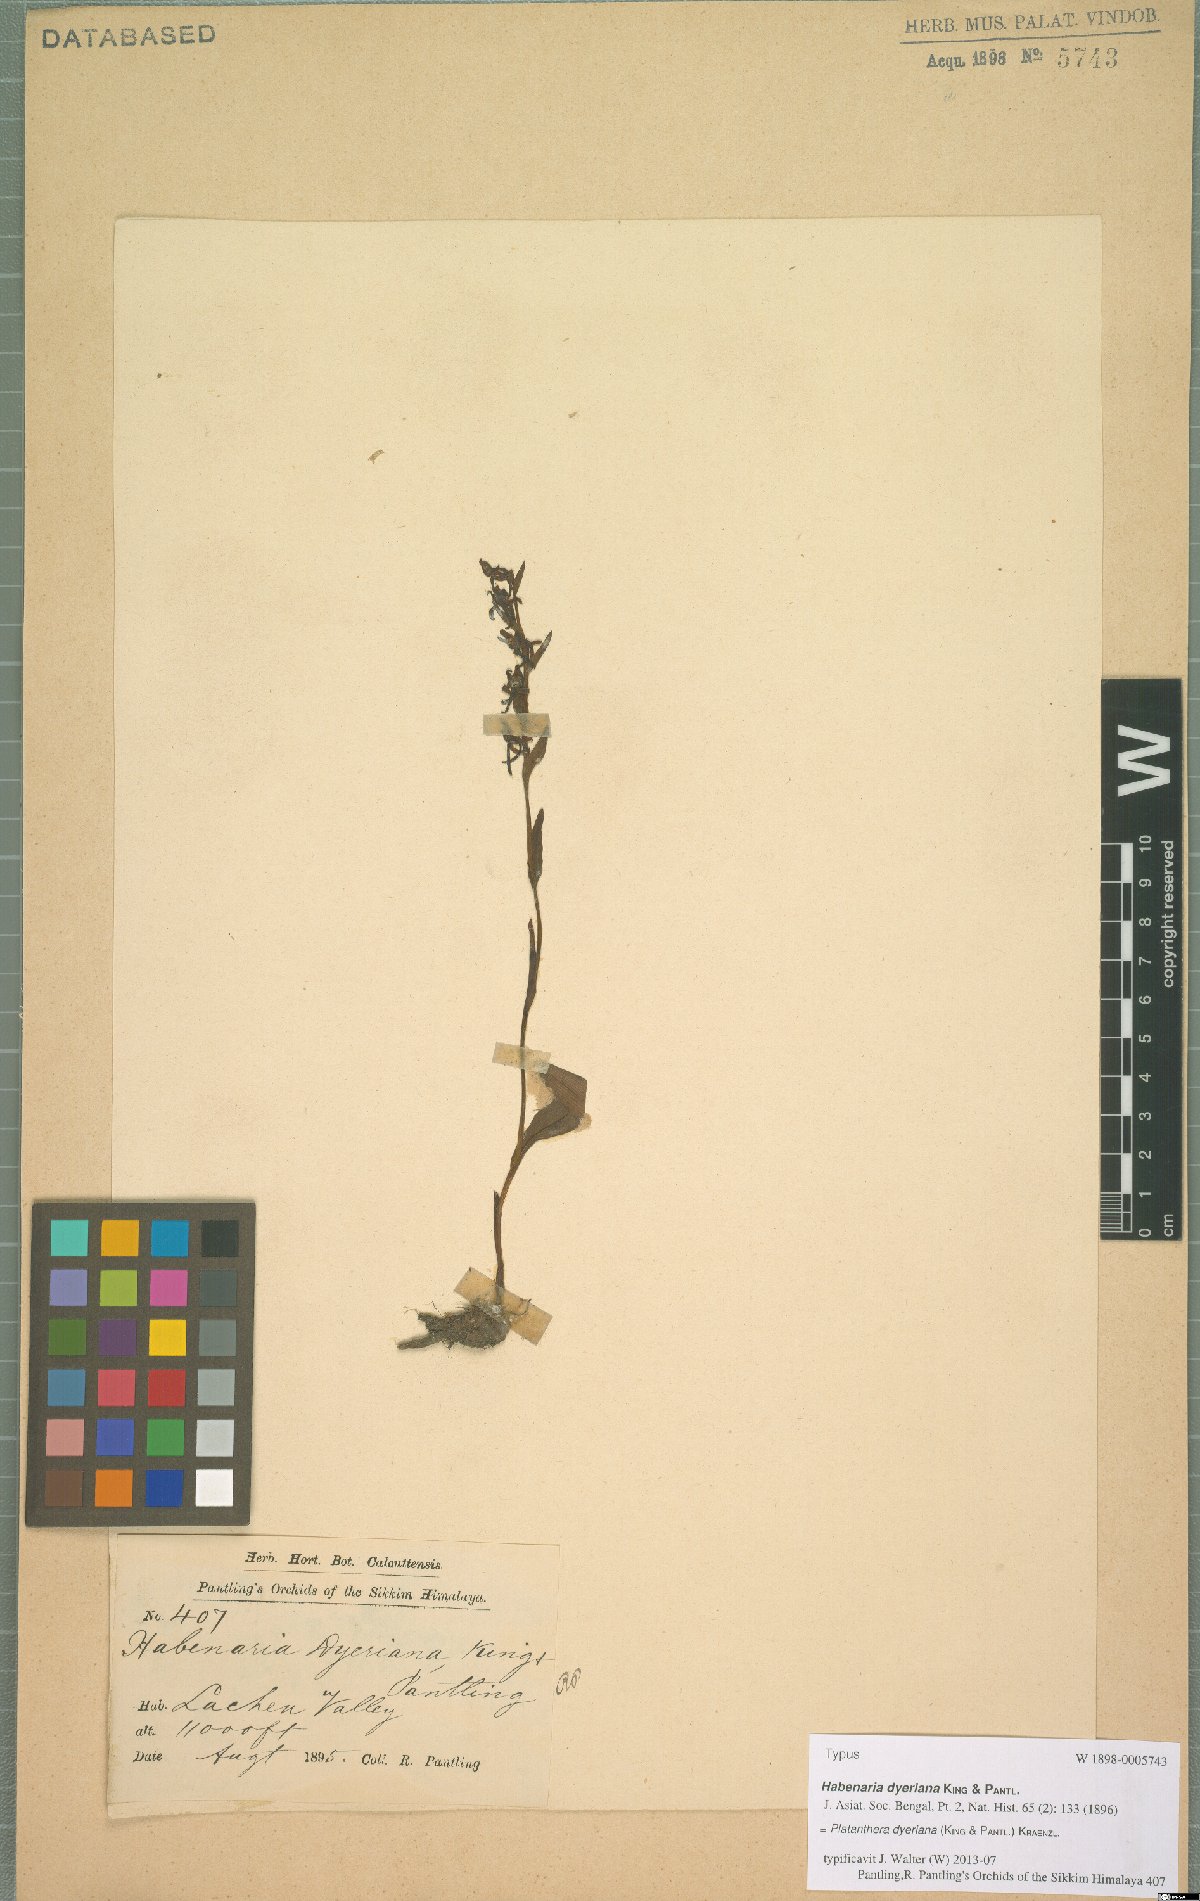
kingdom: Plantae
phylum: Tracheophyta
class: Liliopsida
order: Asparagales
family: Orchidaceae
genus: Platanthera
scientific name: Platanthera concinna
